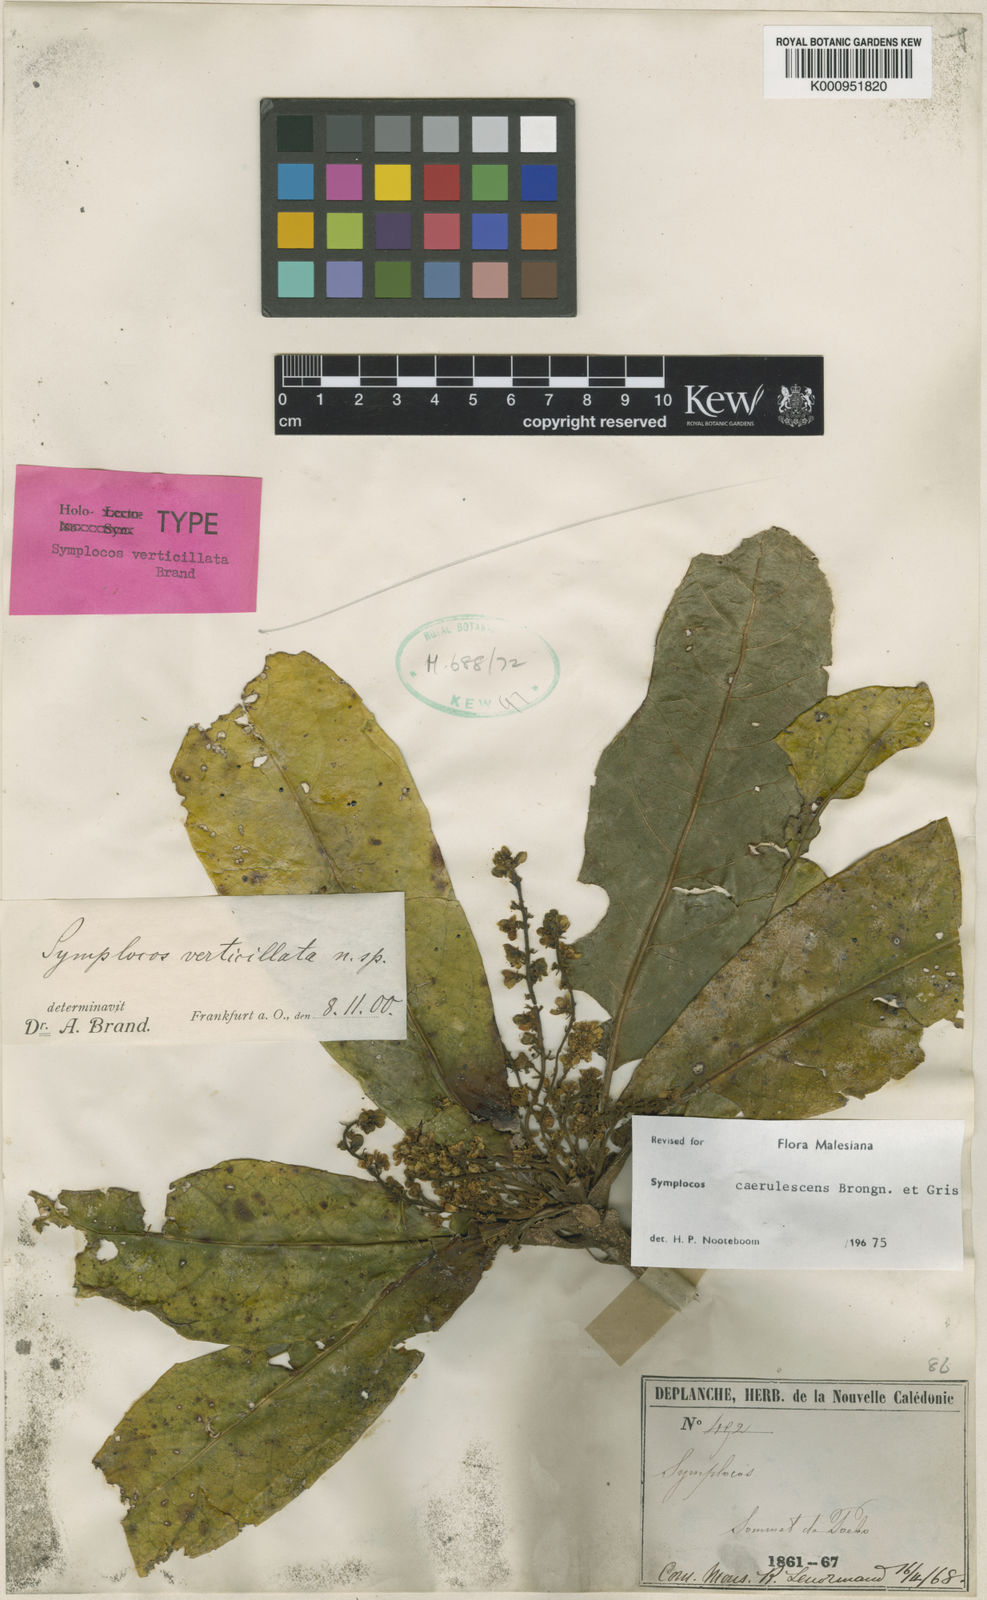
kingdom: Plantae
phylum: Tracheophyta
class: Magnoliopsida
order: Ericales
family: Symplocaceae
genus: Symplocos
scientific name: Symplocos caerulescens
